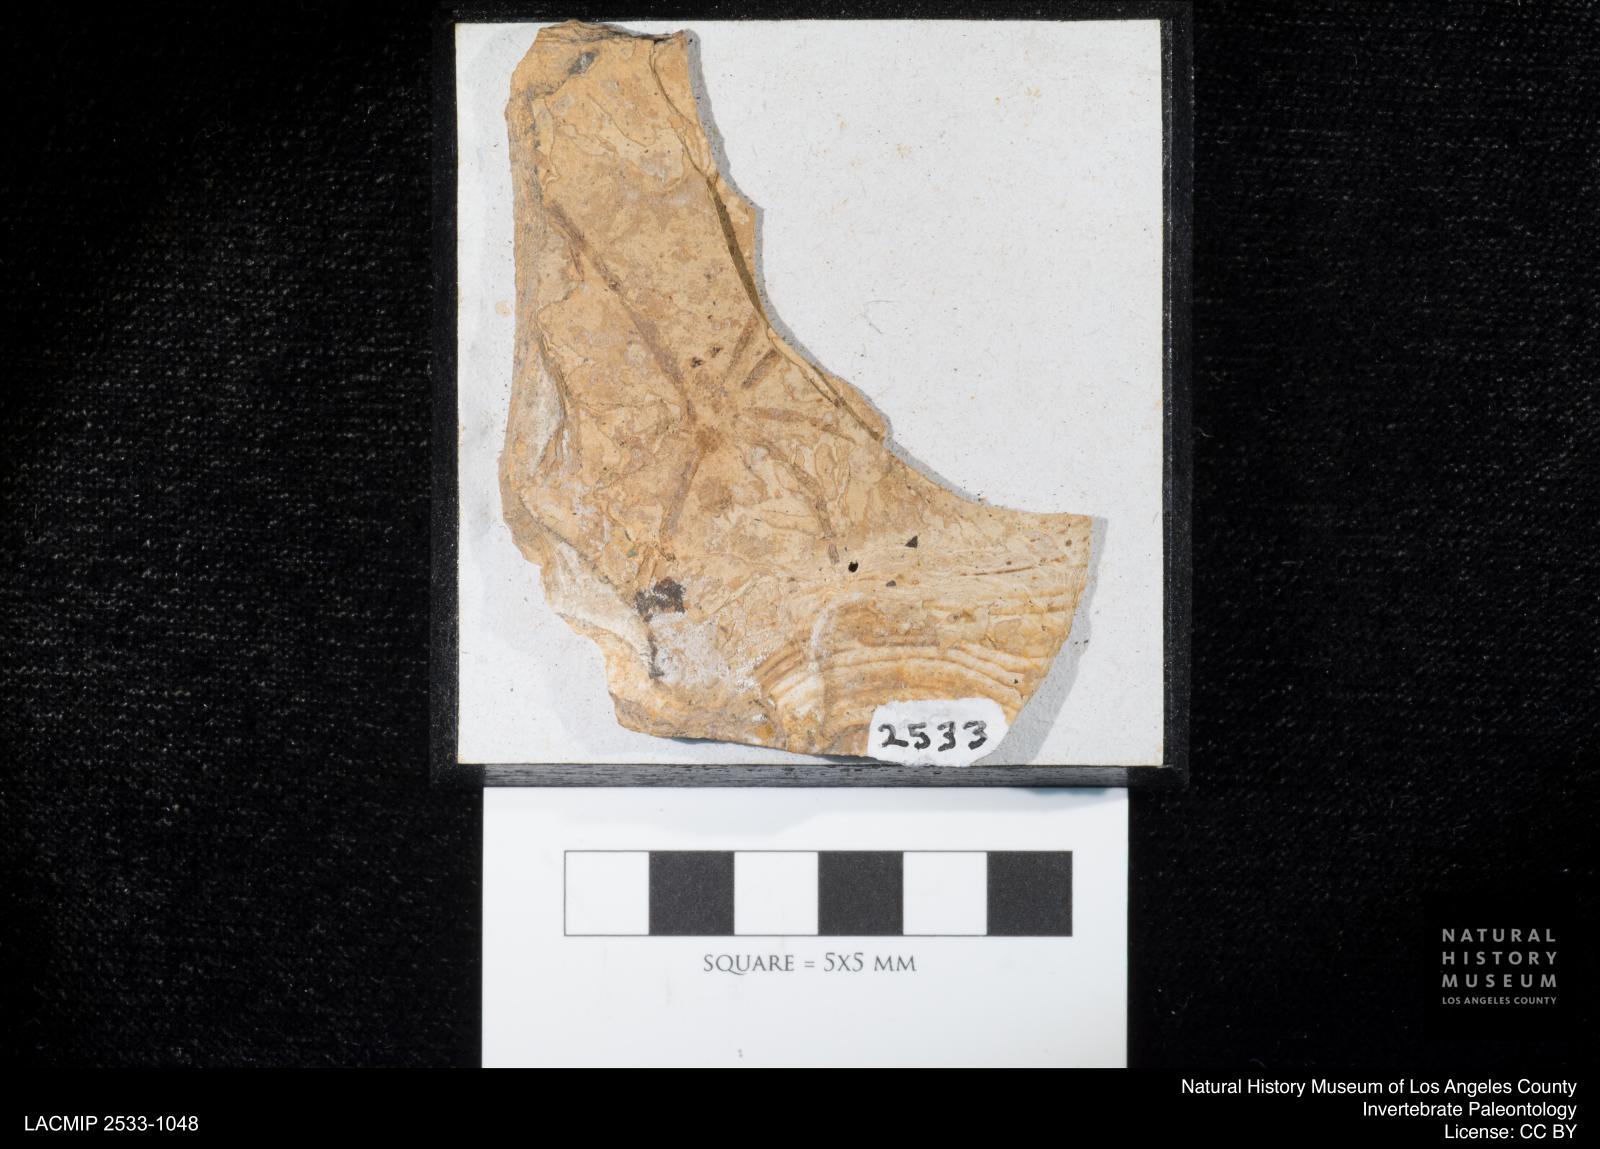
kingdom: Animalia
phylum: Arthropoda
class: Arachnida
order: Araneae
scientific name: Araneae
